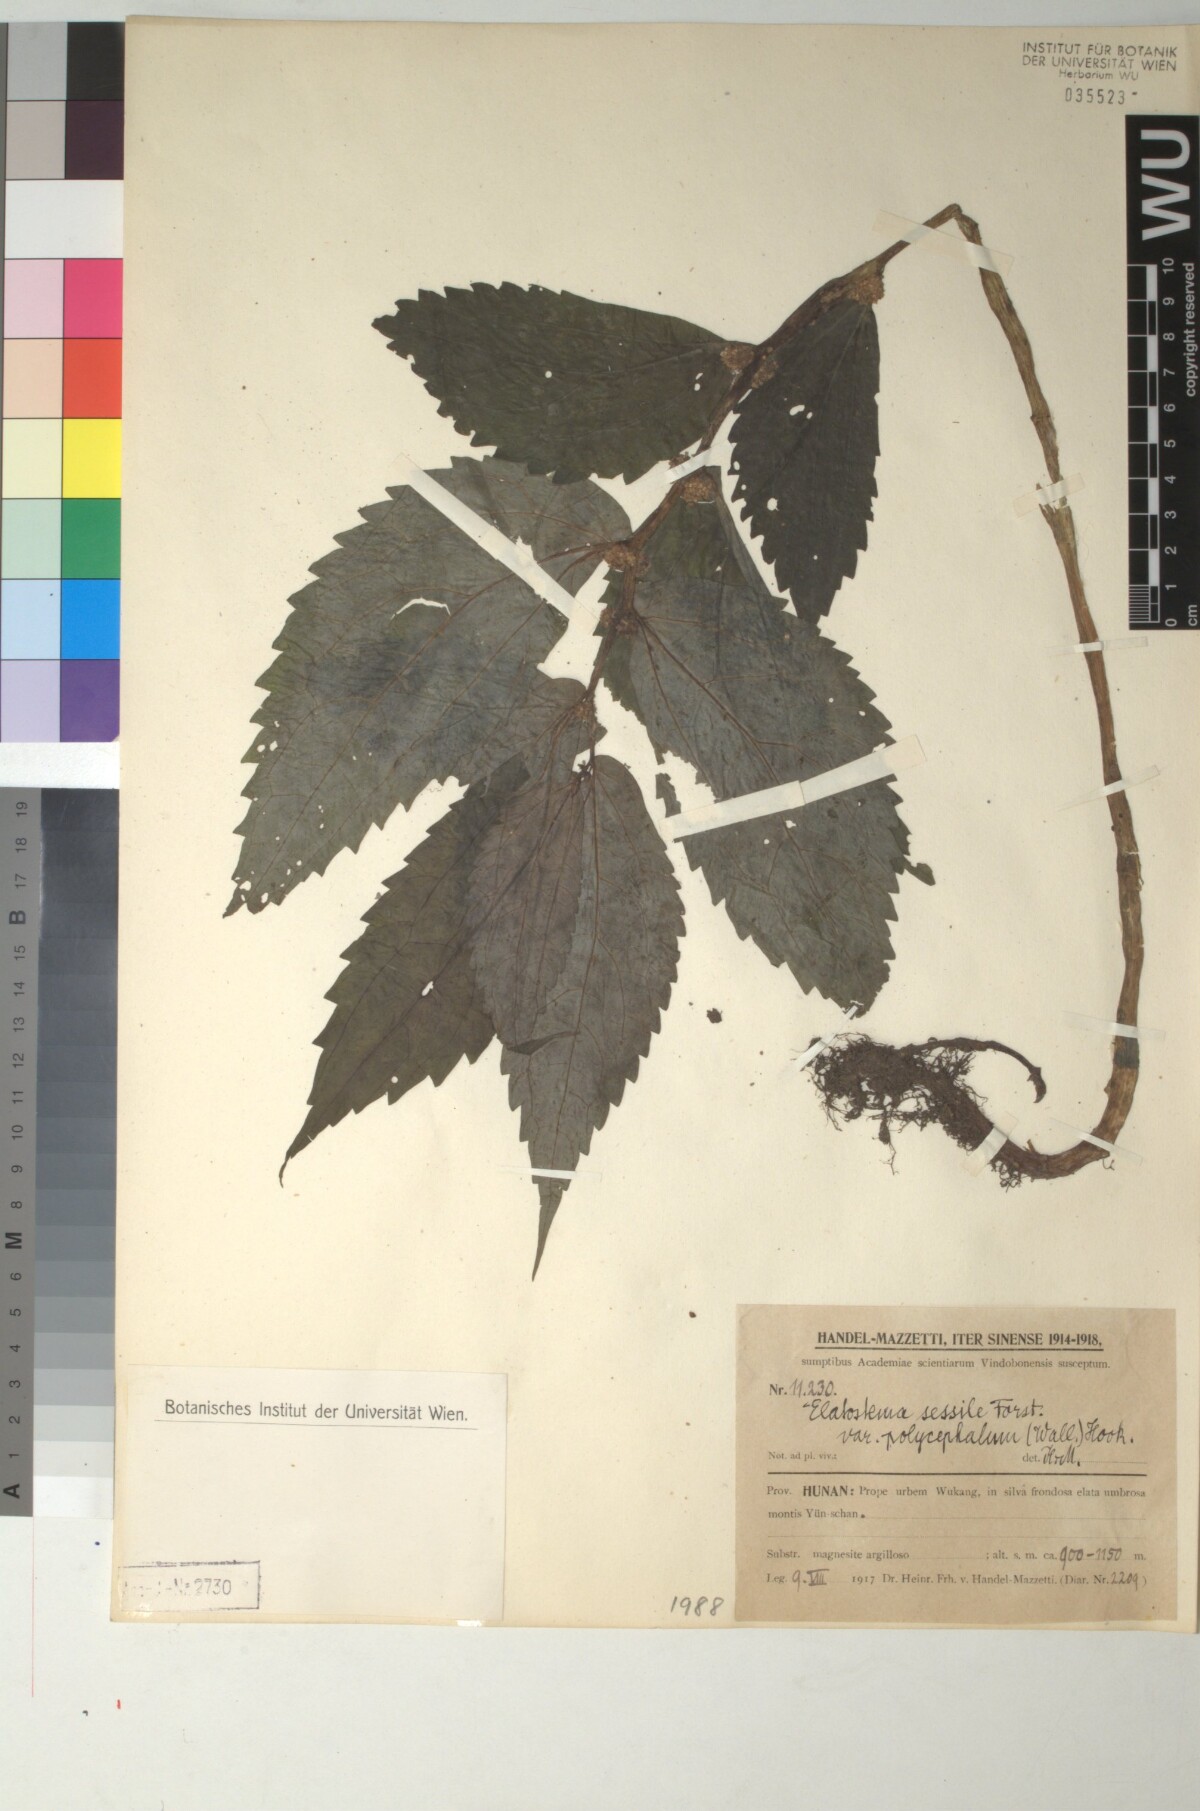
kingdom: Plantae
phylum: Tracheophyta
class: Magnoliopsida
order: Rosales
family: Urticaceae
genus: Elatostema
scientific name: Elatostema nasutum
